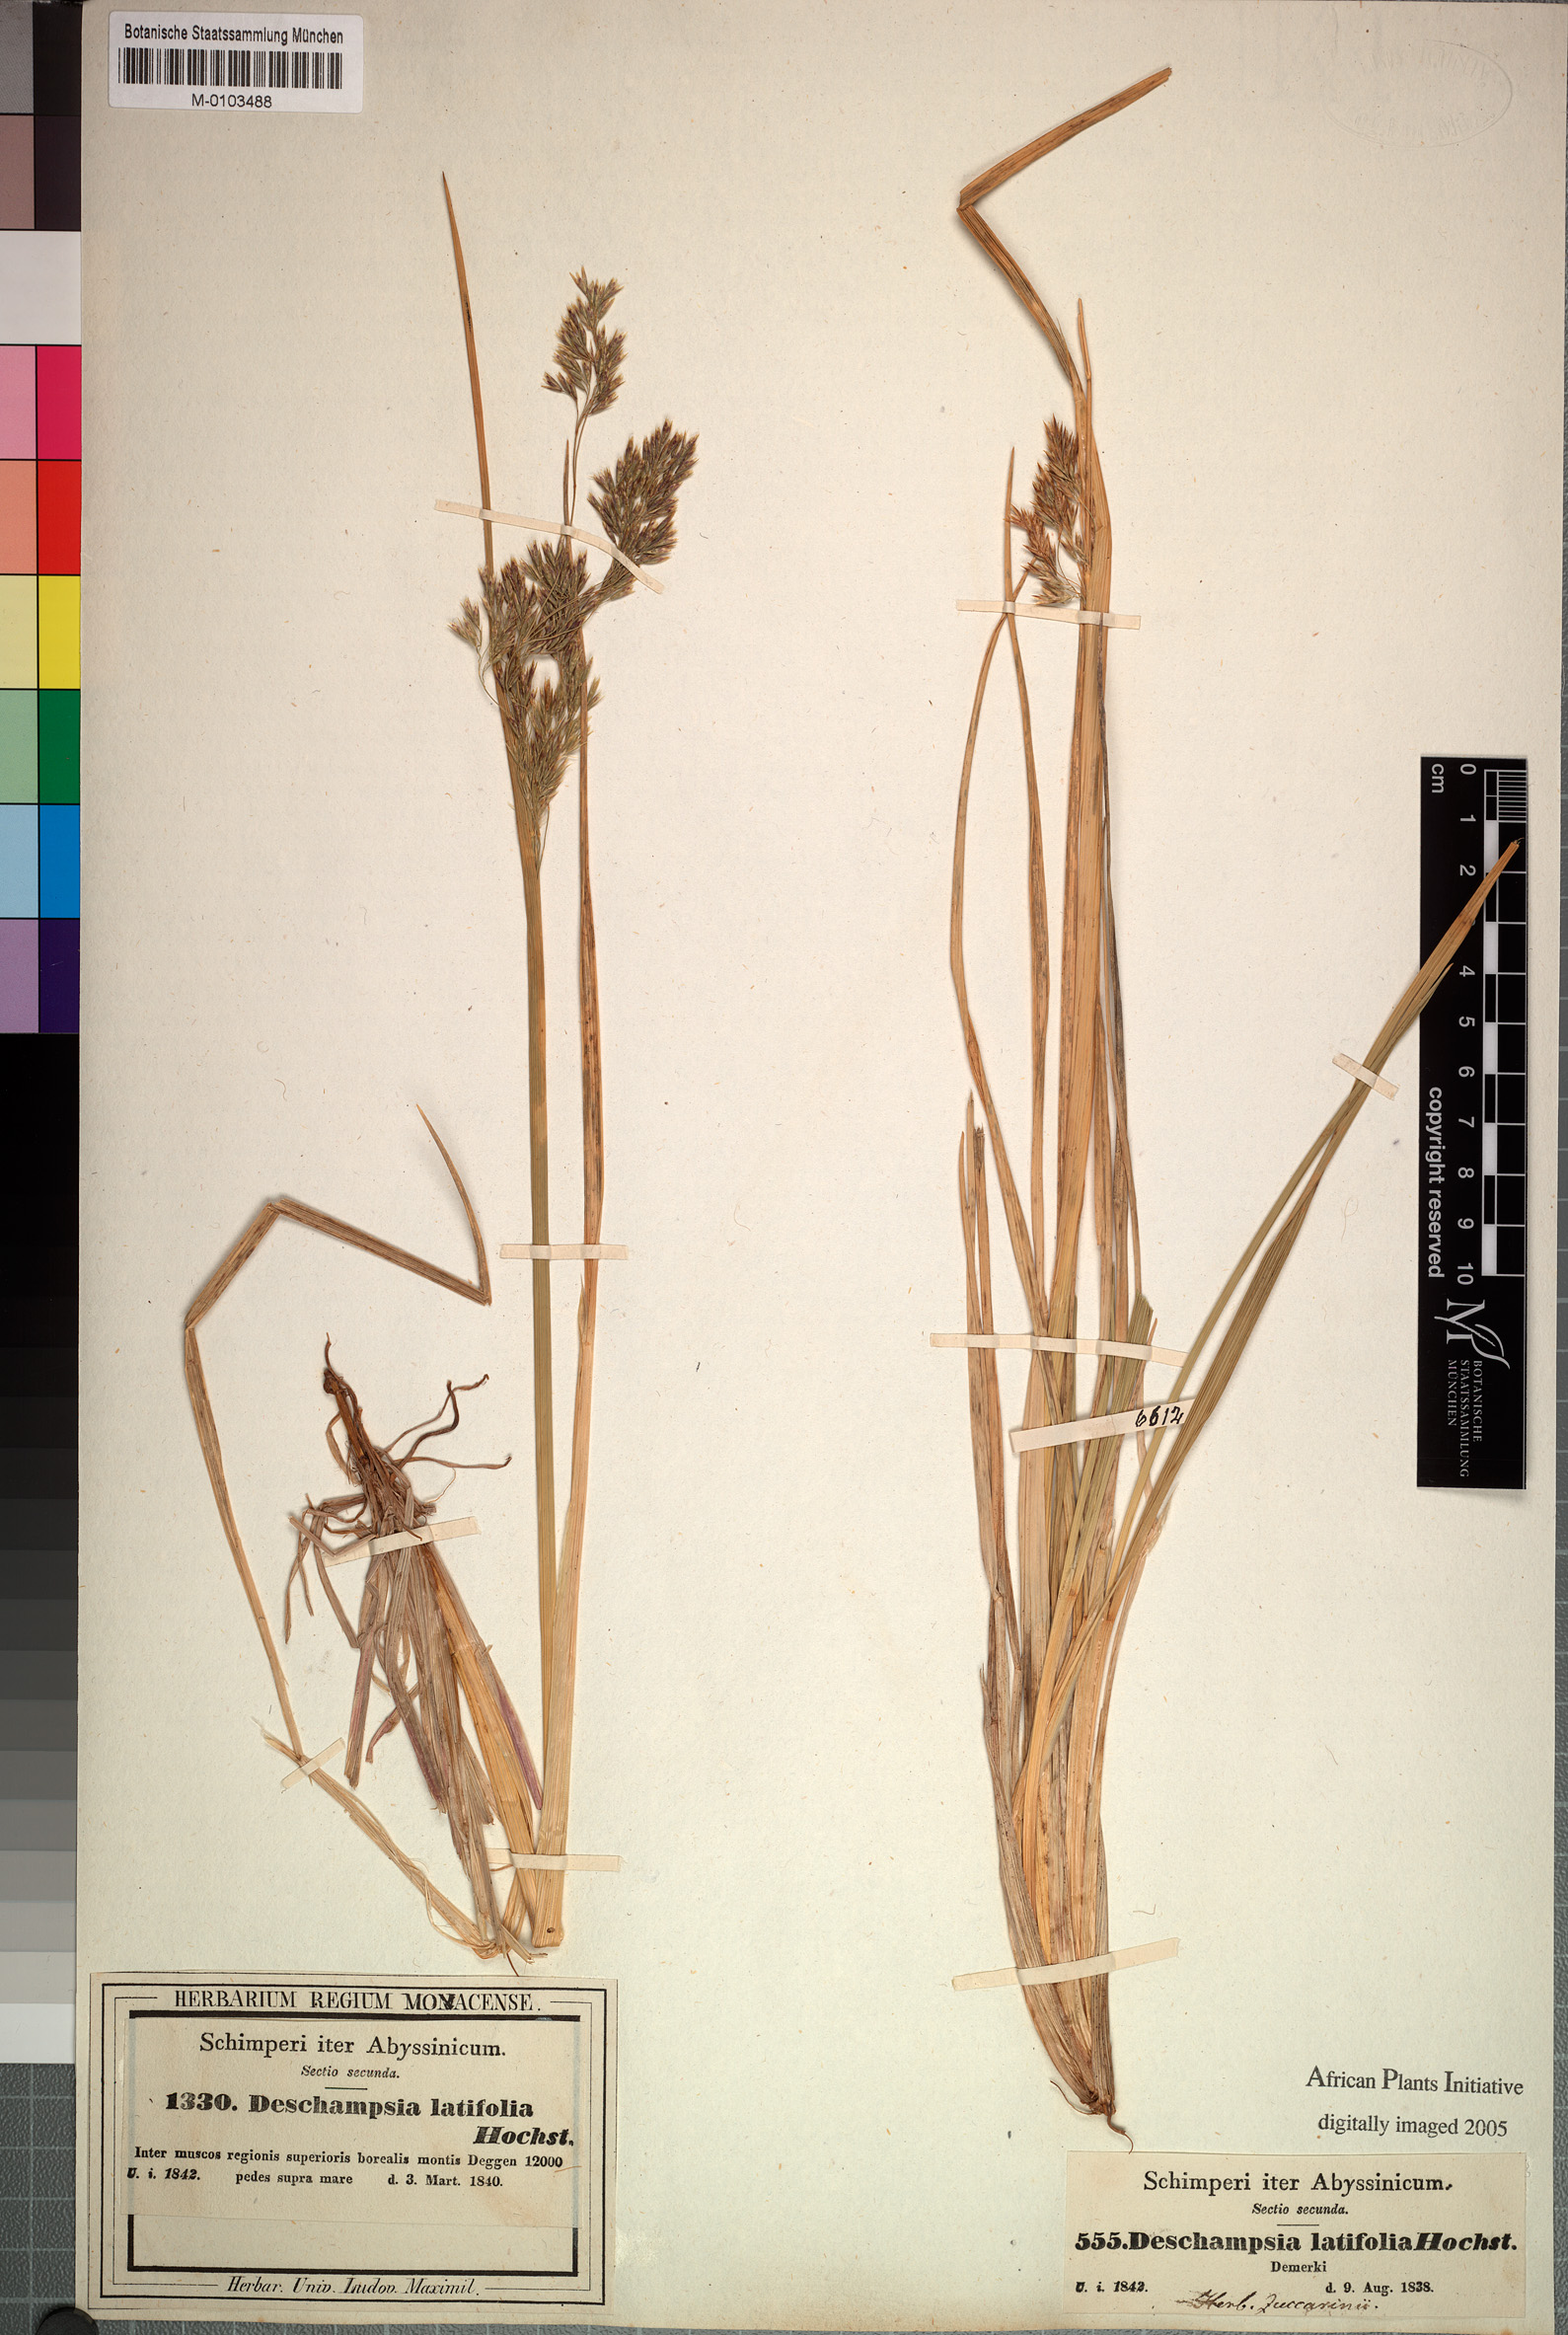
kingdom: Plantae
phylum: Tracheophyta
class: Liliopsida
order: Poales
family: Poaceae
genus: Deschampsia
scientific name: Deschampsia cespitosa
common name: Tufted hair-grass
